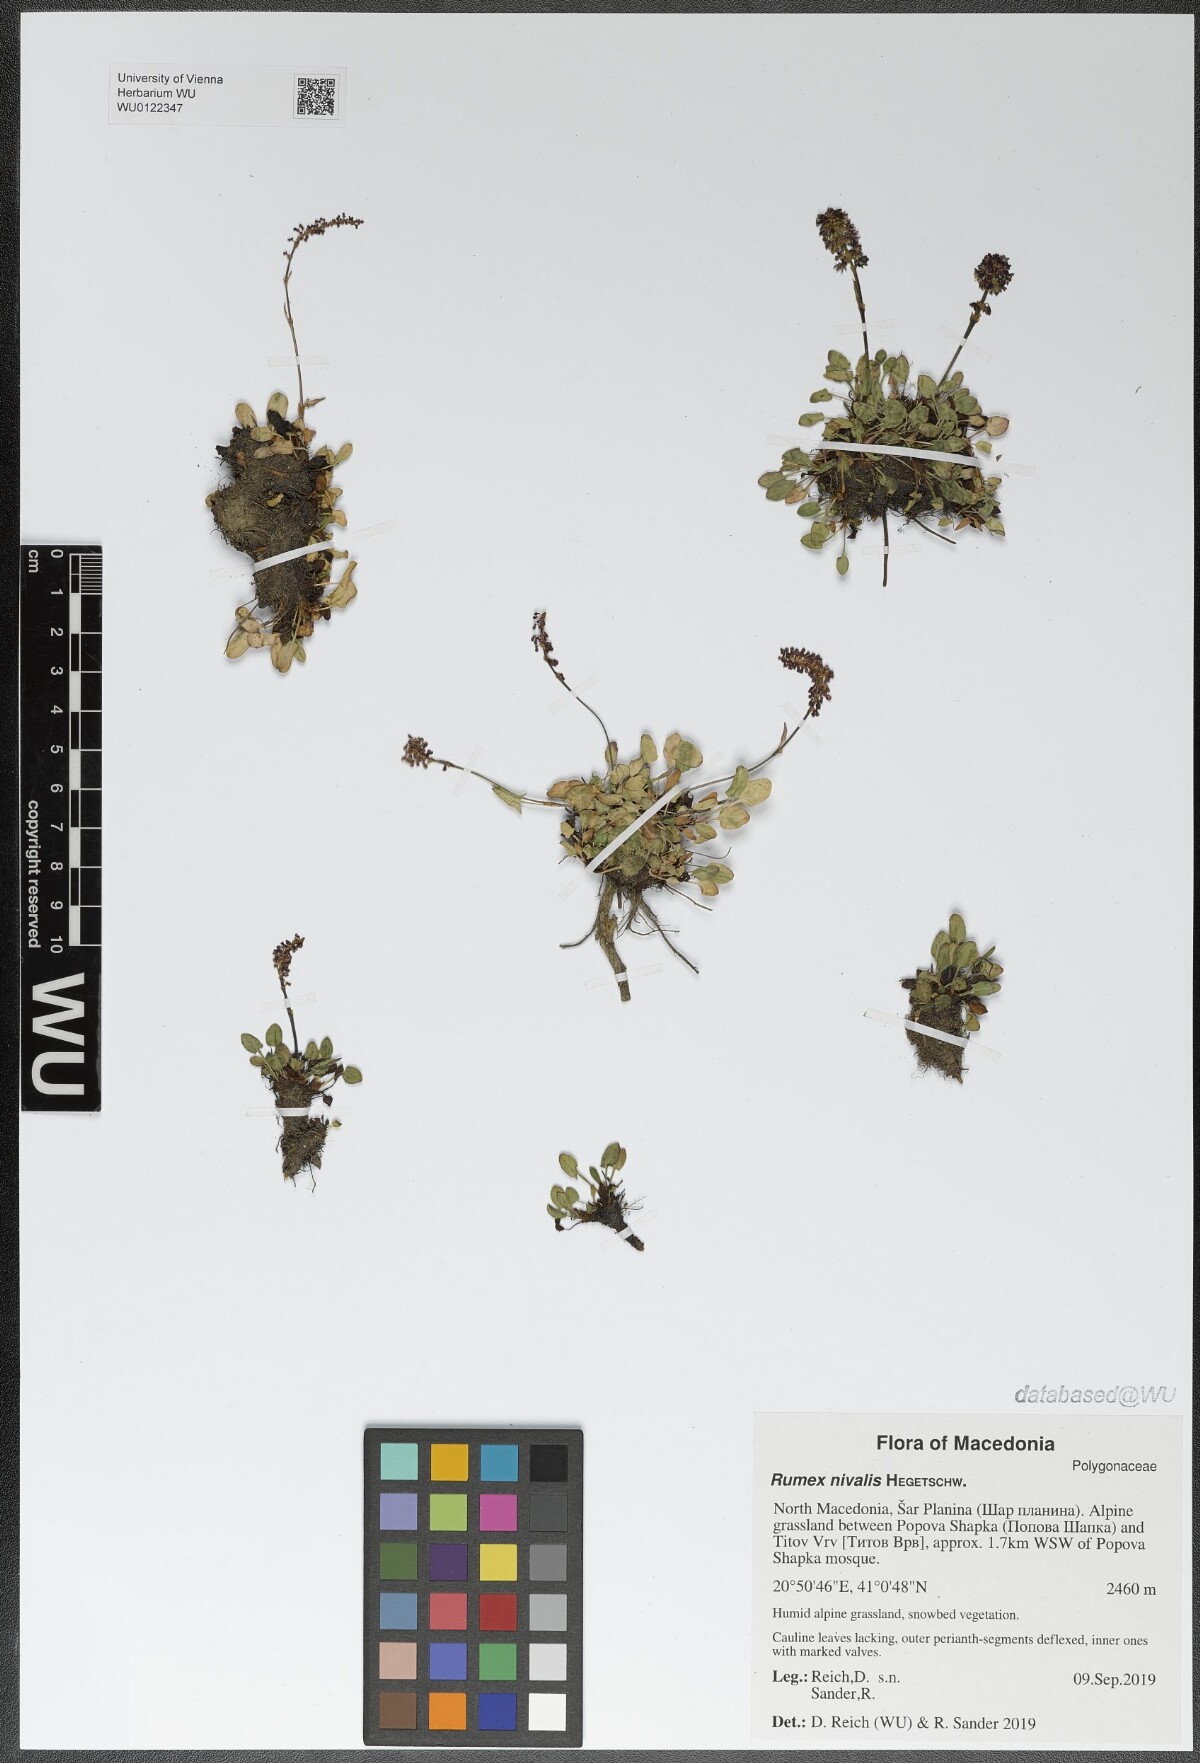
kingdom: Plantae
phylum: Tracheophyta
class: Magnoliopsida
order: Caryophyllales
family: Polygonaceae
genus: Rumex
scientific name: Rumex nivalis
